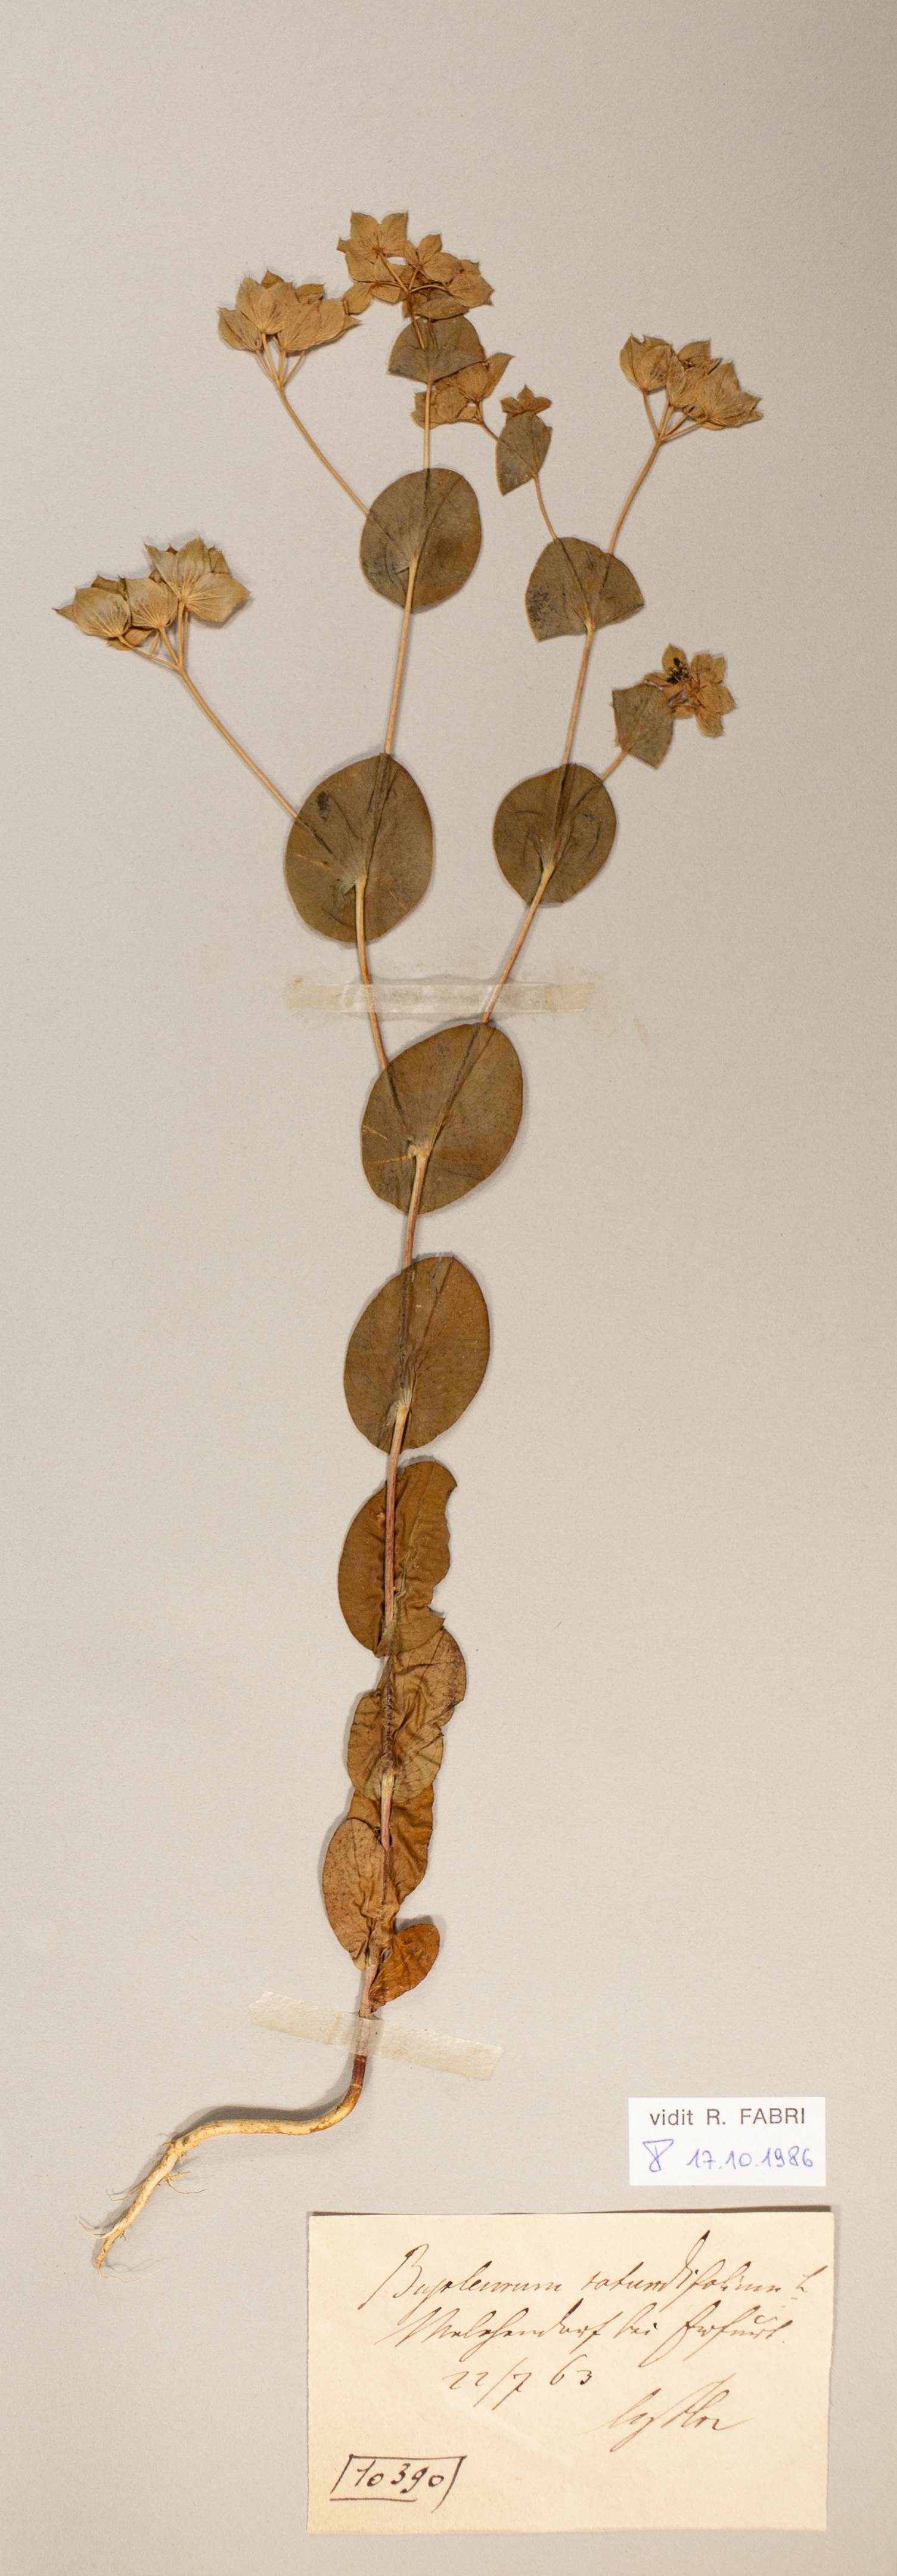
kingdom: Plantae
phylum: Tracheophyta
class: Magnoliopsida
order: Apiales
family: Apiaceae
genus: Bupleurum
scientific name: Bupleurum rotundifolium
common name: Thorow-wax
